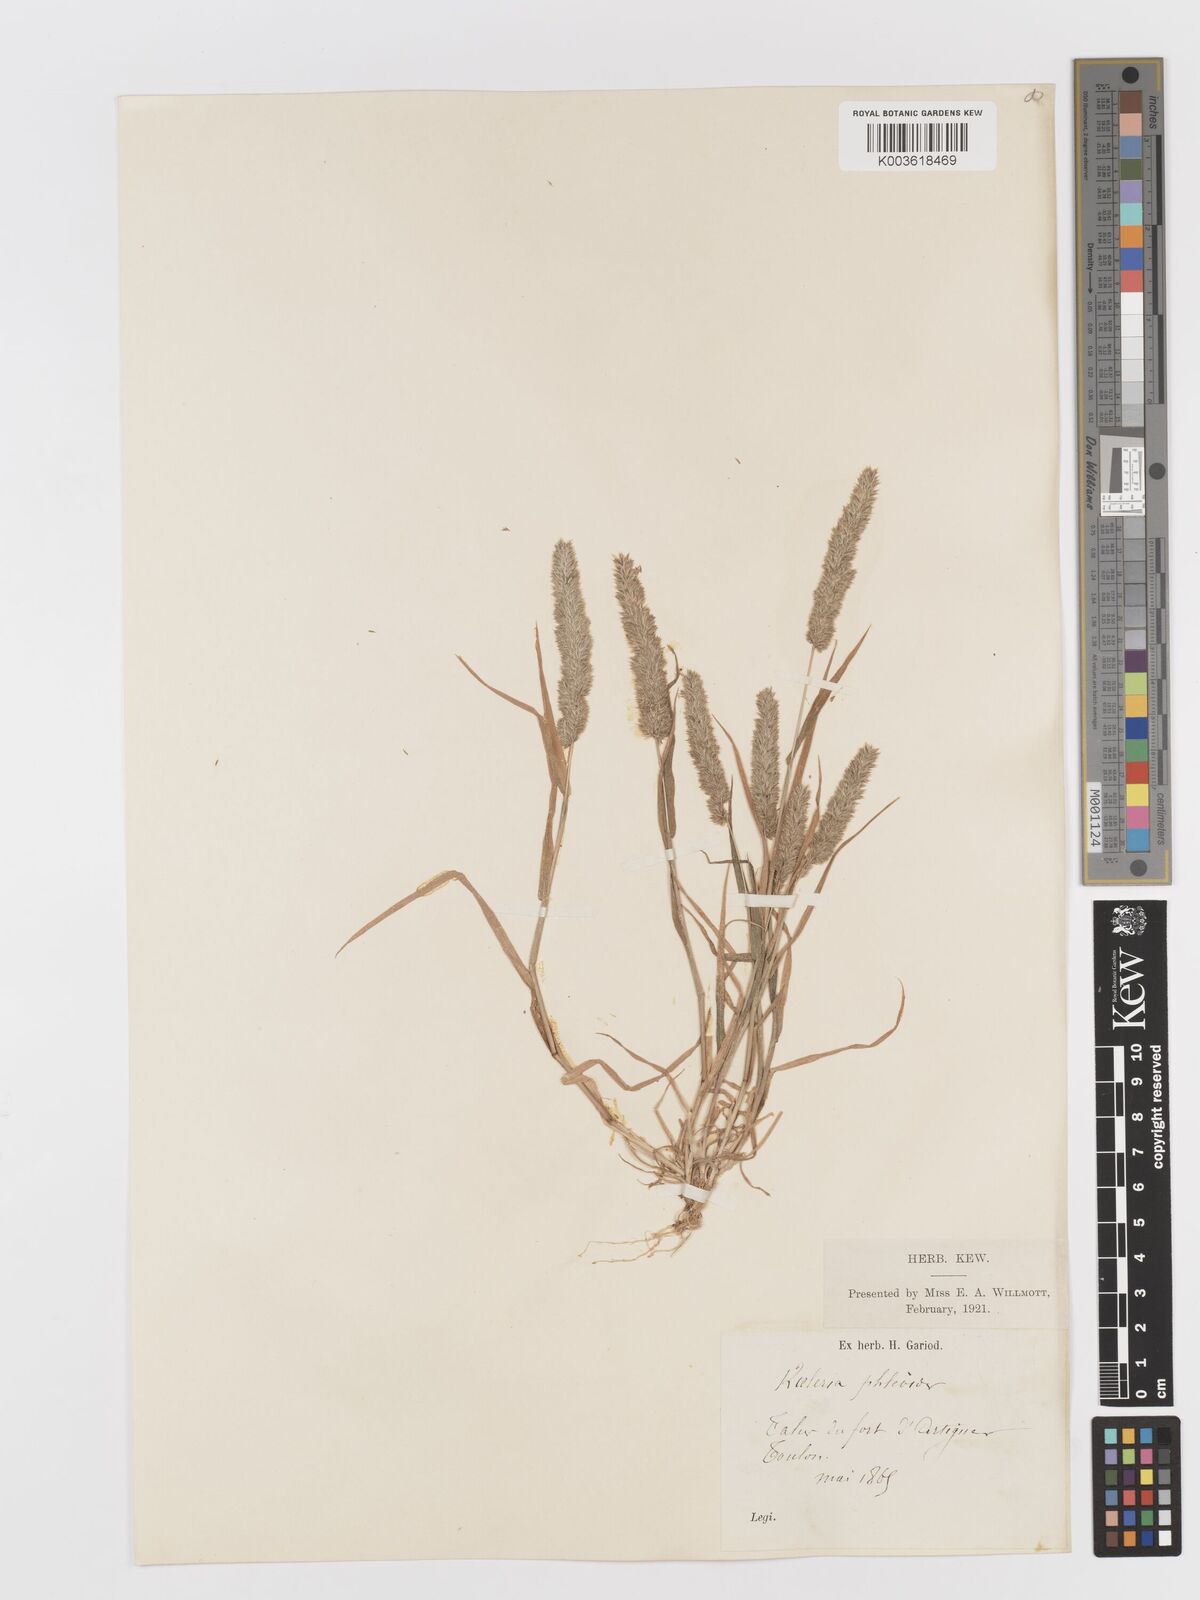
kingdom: Plantae
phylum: Tracheophyta
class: Liliopsida
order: Poales
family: Poaceae
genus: Rostraria
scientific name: Rostraria cristata
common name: Mediterranean hair-grass
